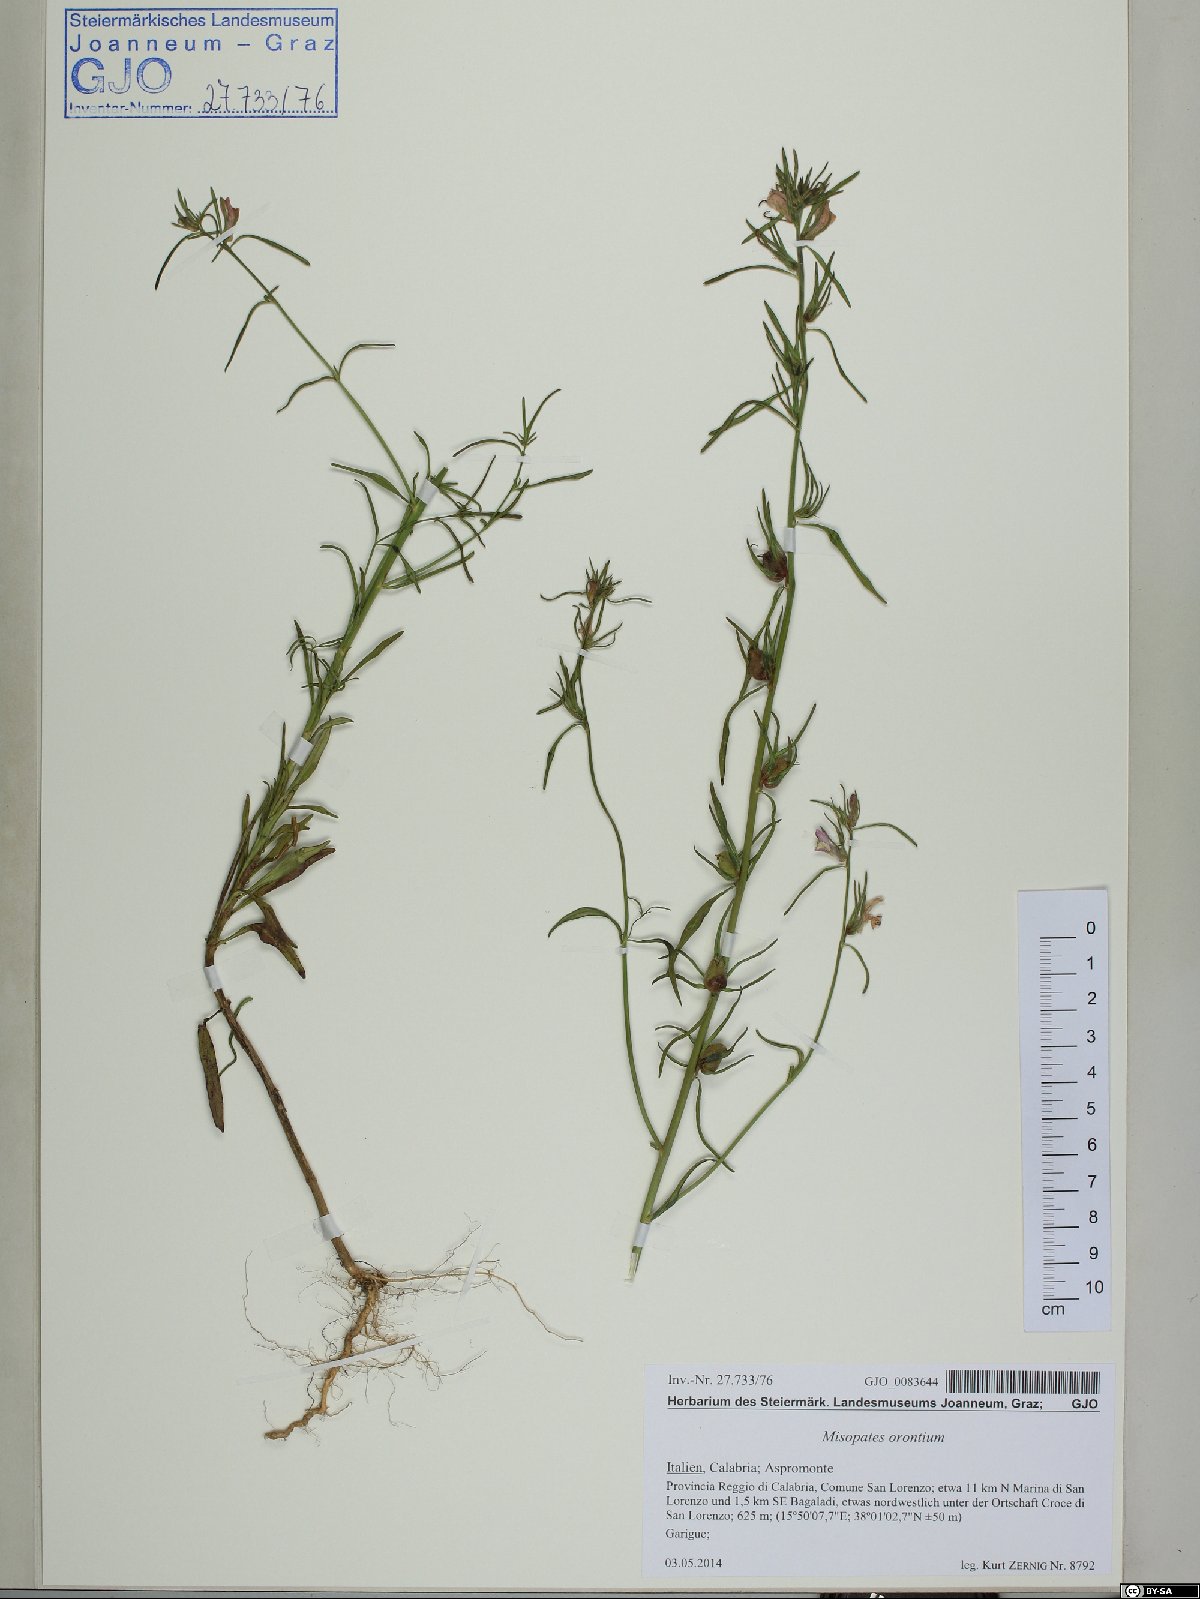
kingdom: Plantae
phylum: Tracheophyta
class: Magnoliopsida
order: Lamiales
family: Plantaginaceae
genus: Misopates
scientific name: Misopates orontium
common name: Weasel's-snout
